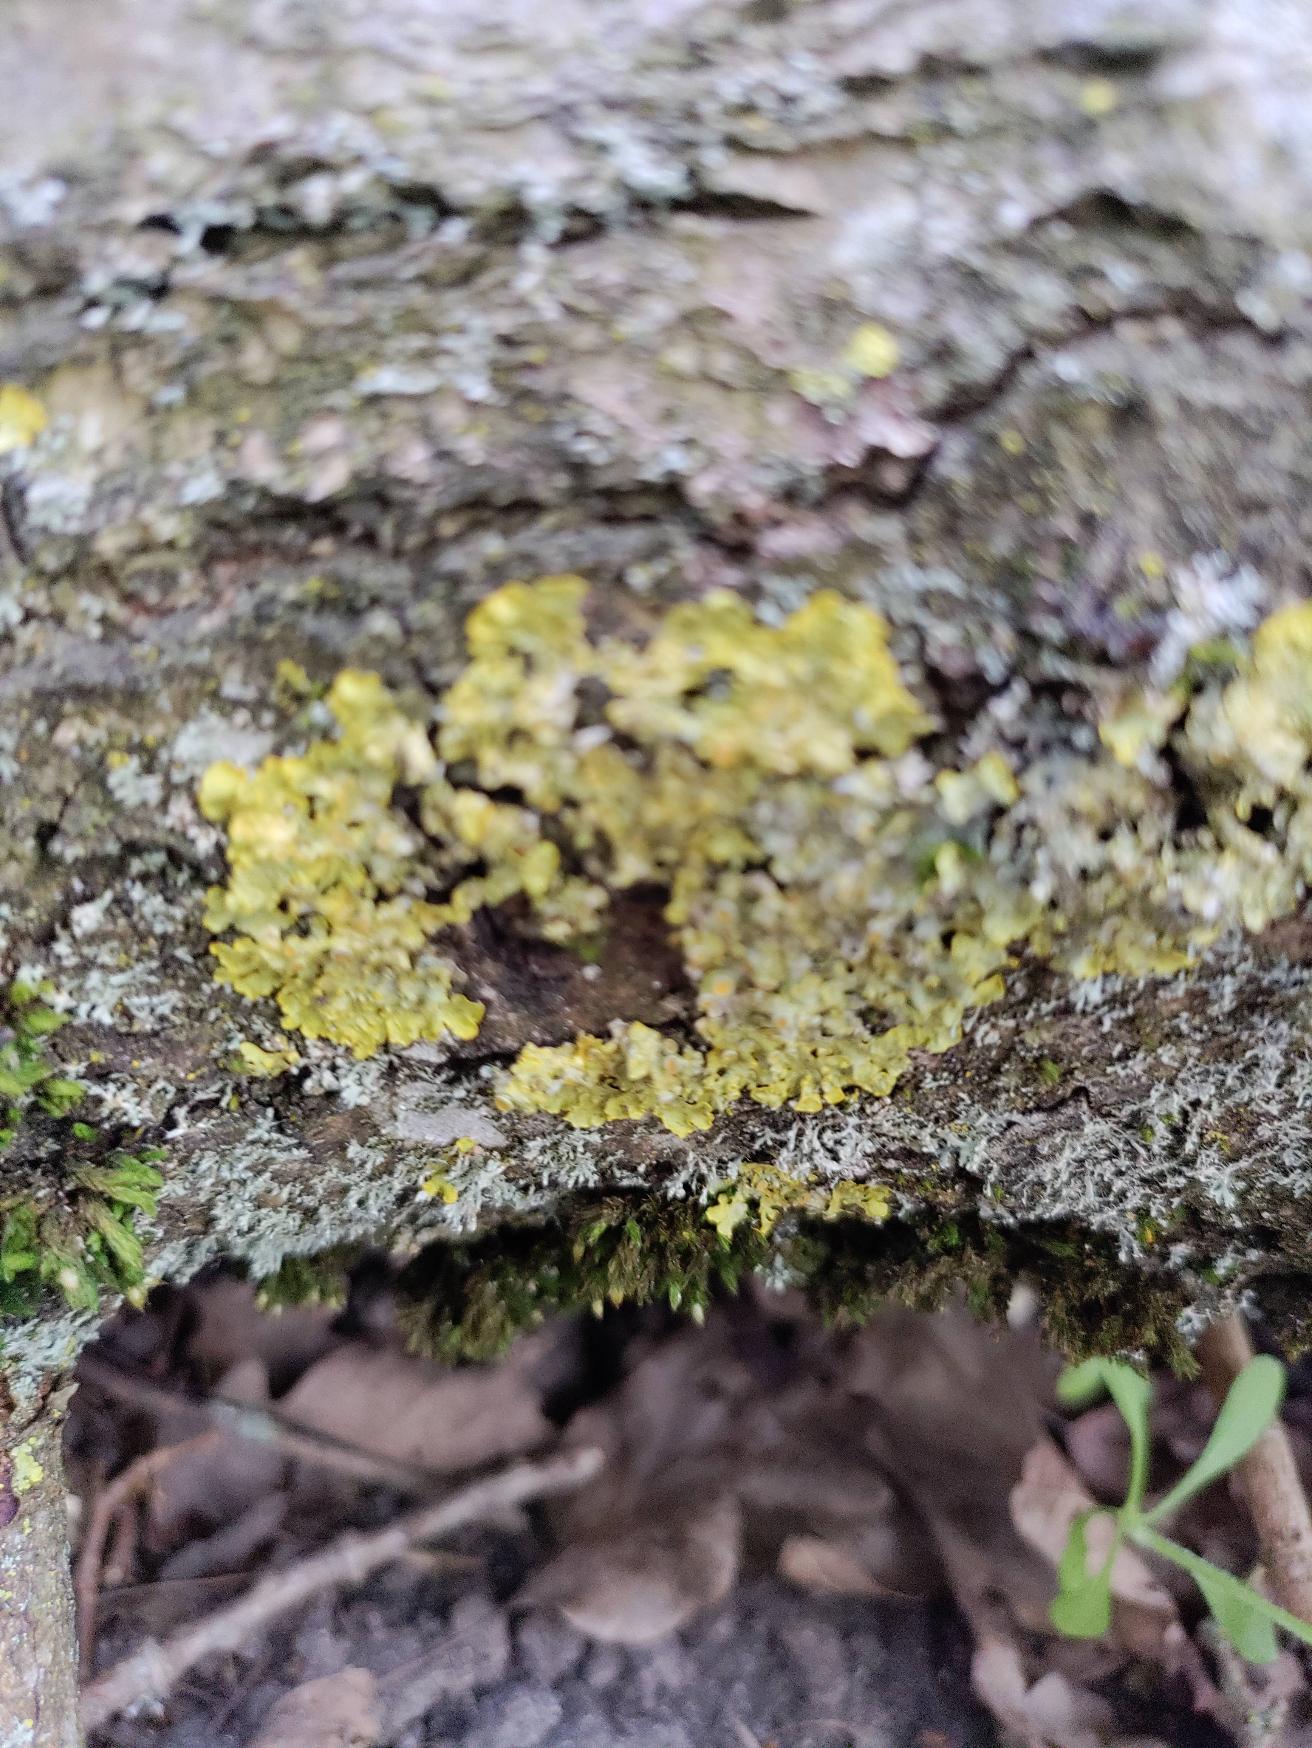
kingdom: Fungi
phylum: Ascomycota
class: Lecanoromycetes
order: Teloschistales
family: Teloschistaceae
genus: Xanthoria
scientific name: Xanthoria parietina
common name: Almindelig væggelav
